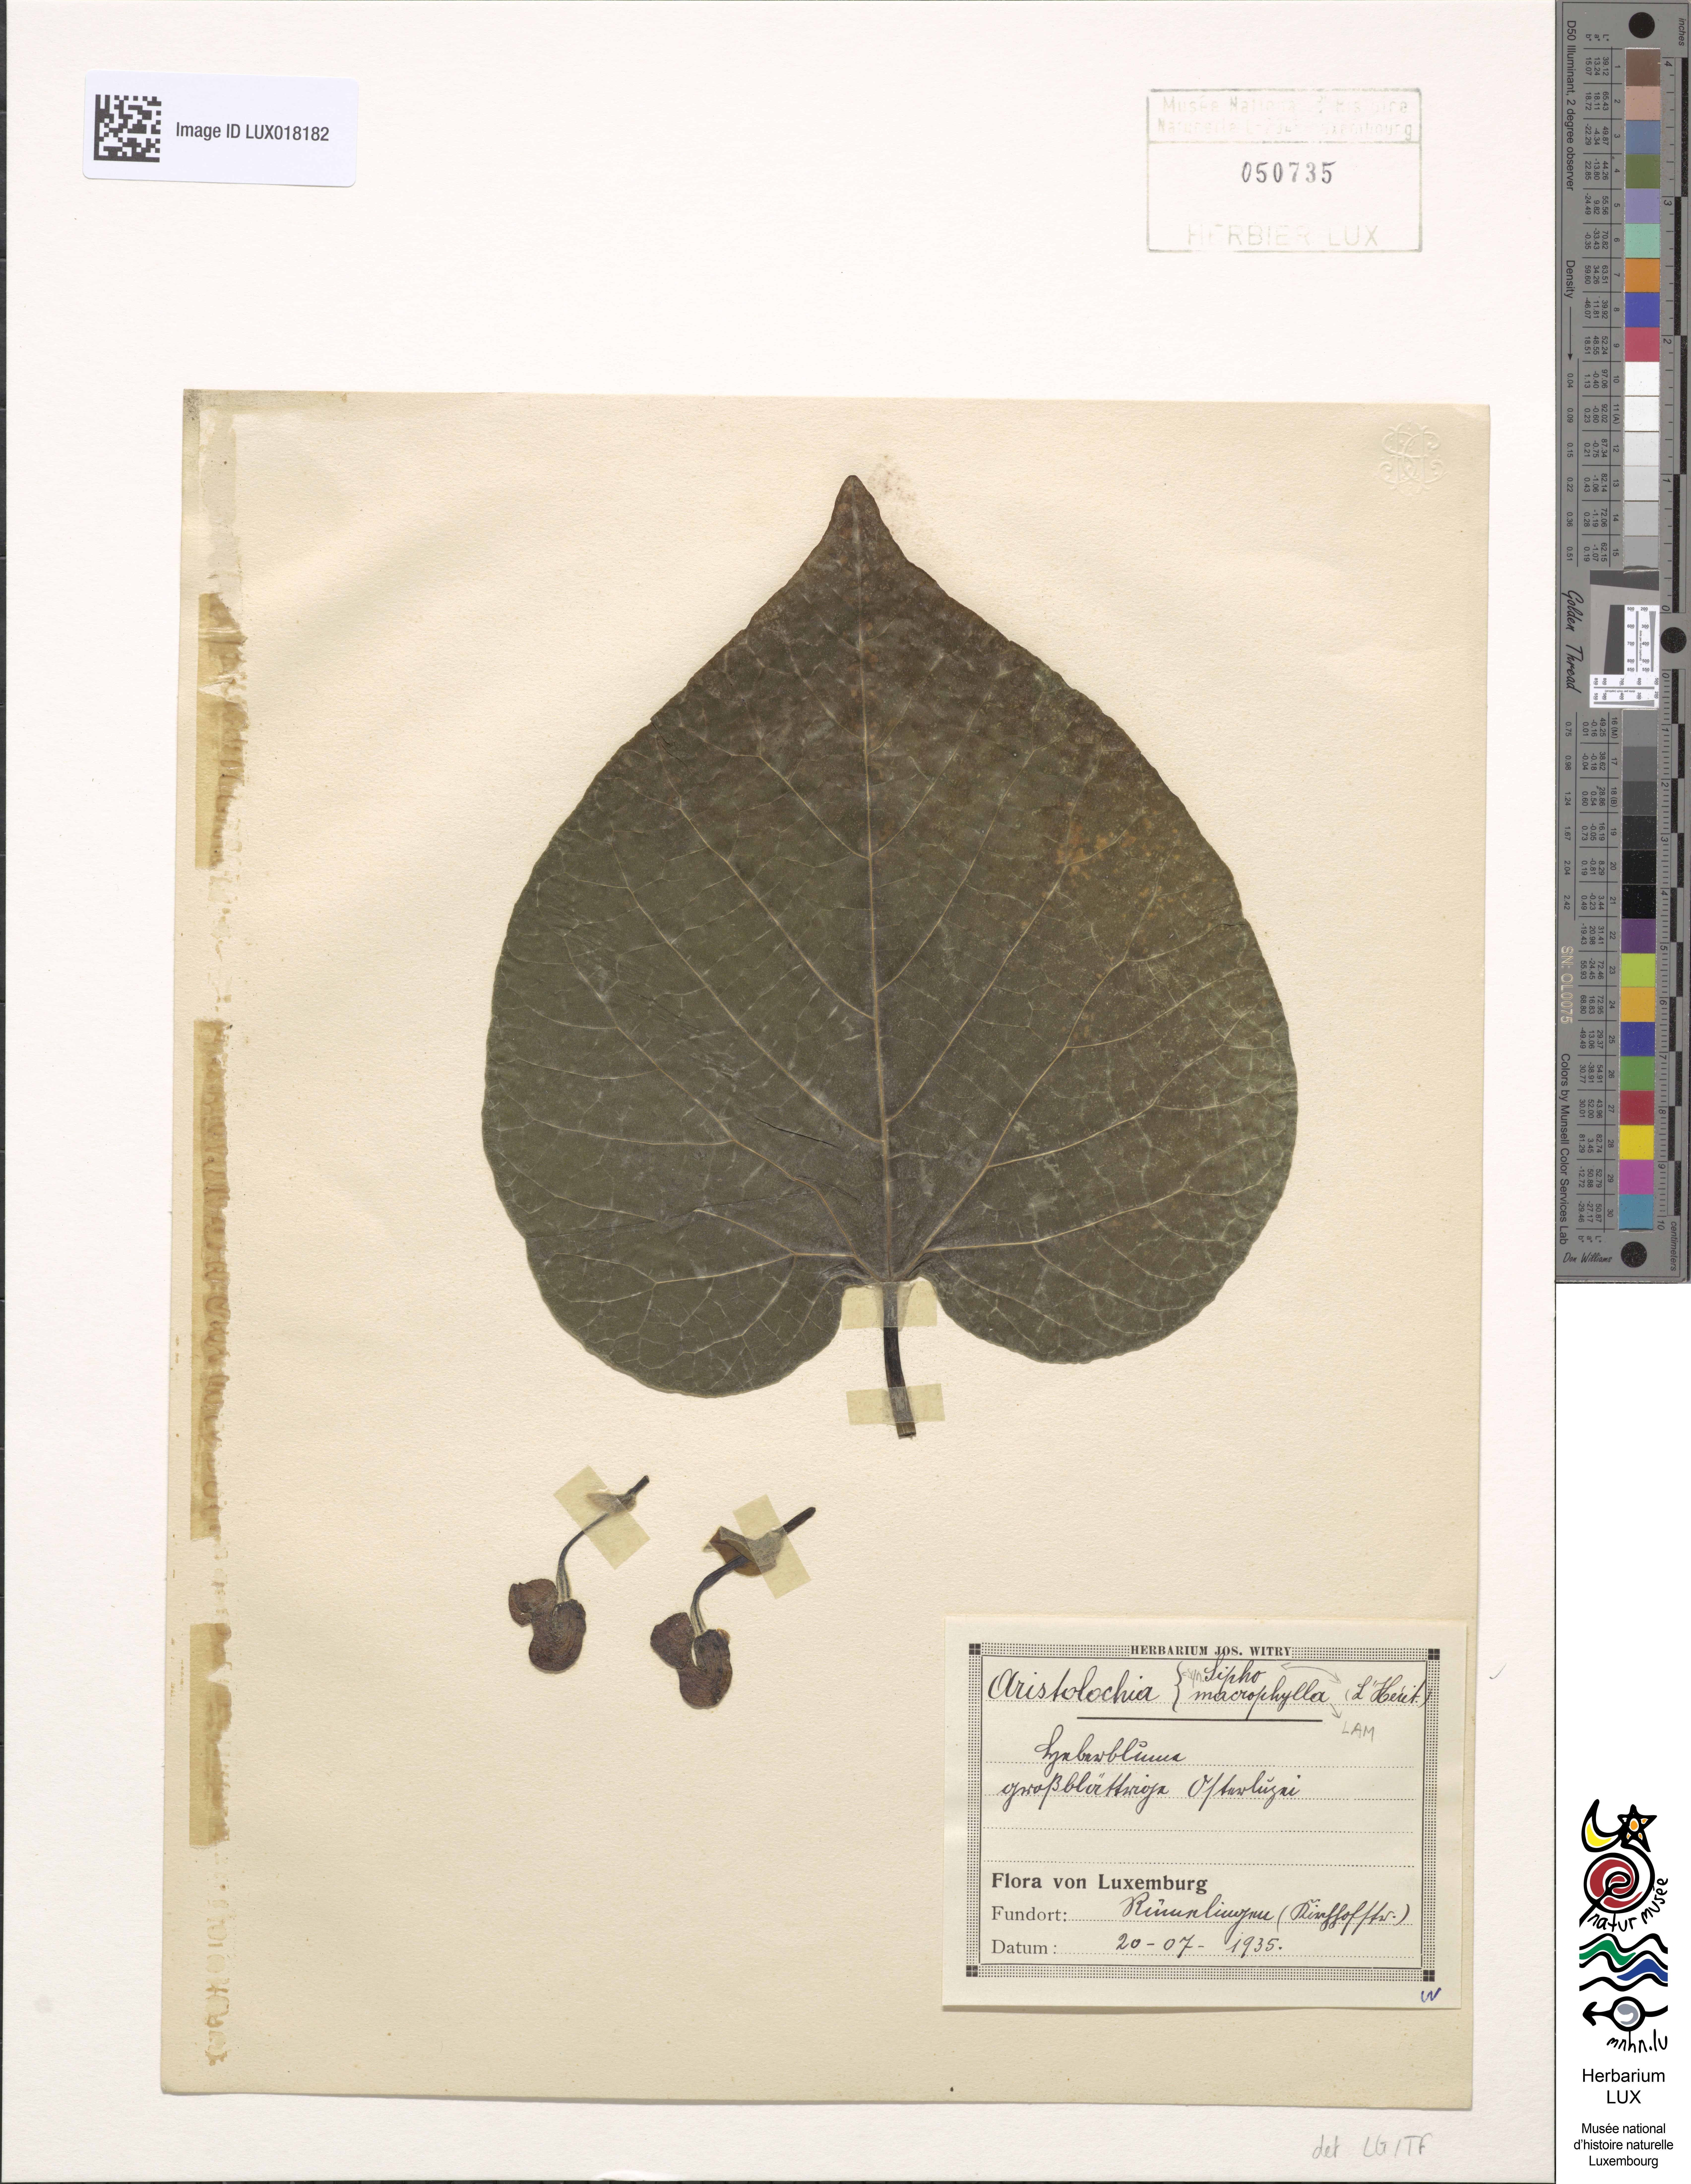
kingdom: Plantae
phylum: Tracheophyta
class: Magnoliopsida
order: Piperales
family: Aristolochiaceae
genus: Isotrema
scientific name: Isotrema macrophyllum
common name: Dutchman's-pipe
